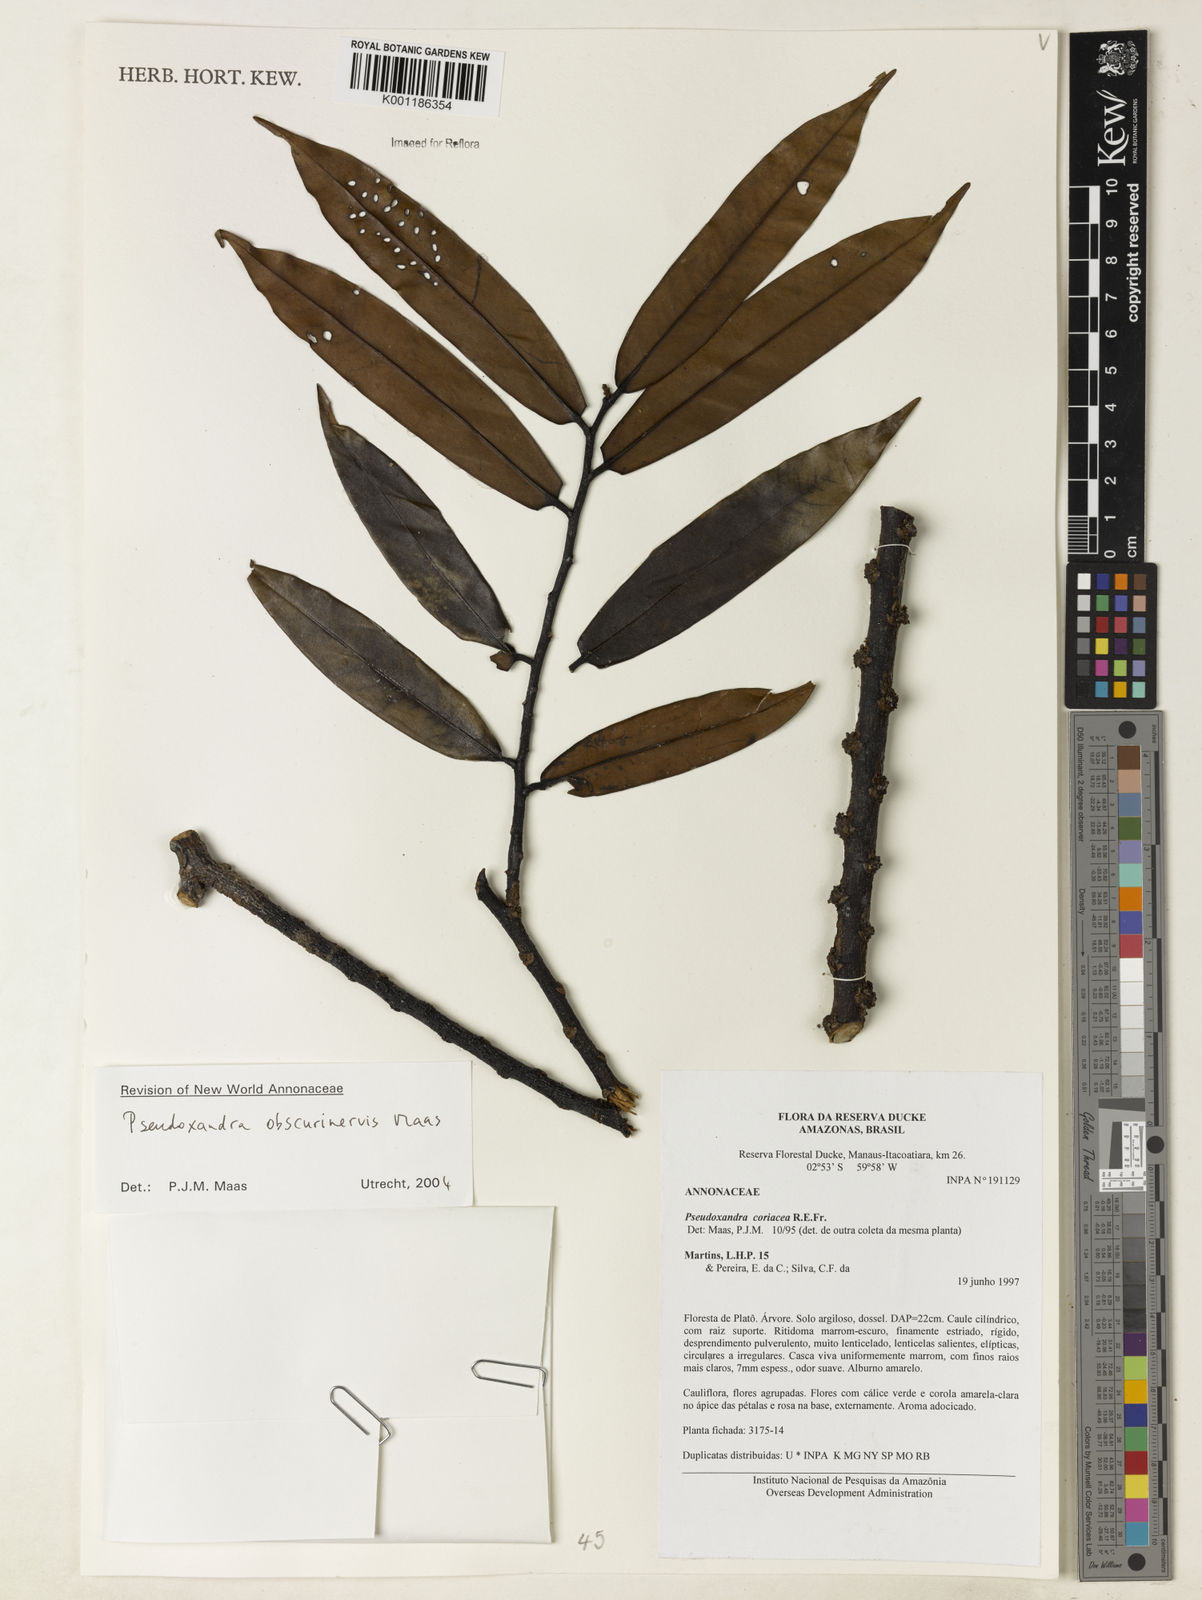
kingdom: Plantae
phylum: Tracheophyta
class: Magnoliopsida
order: Magnoliales
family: Annonaceae
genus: Pseudoxandra
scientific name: Pseudoxandra obscurinervis
